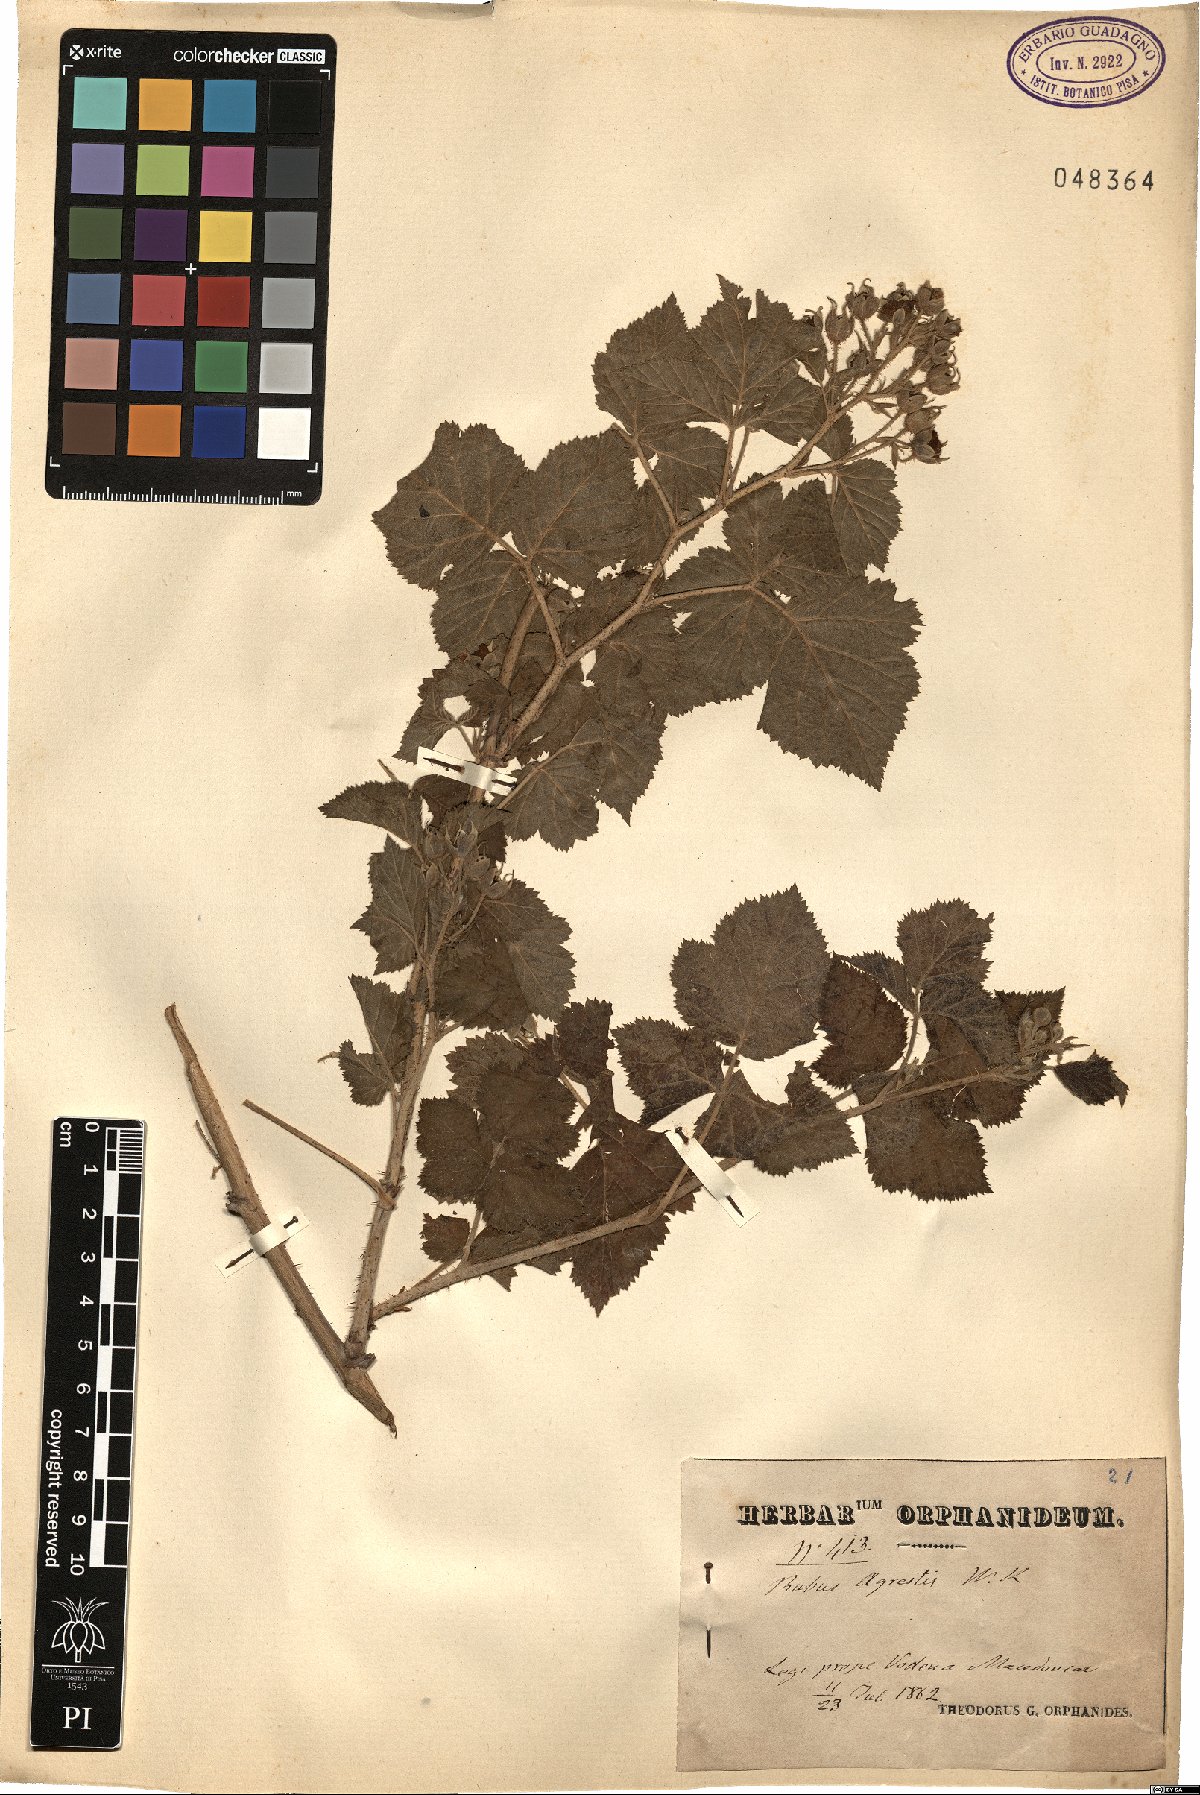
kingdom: Plantae
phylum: Tracheophyta
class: Magnoliopsida
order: Rosales
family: Rosaceae
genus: Rubus
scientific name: Rubus agrestis
